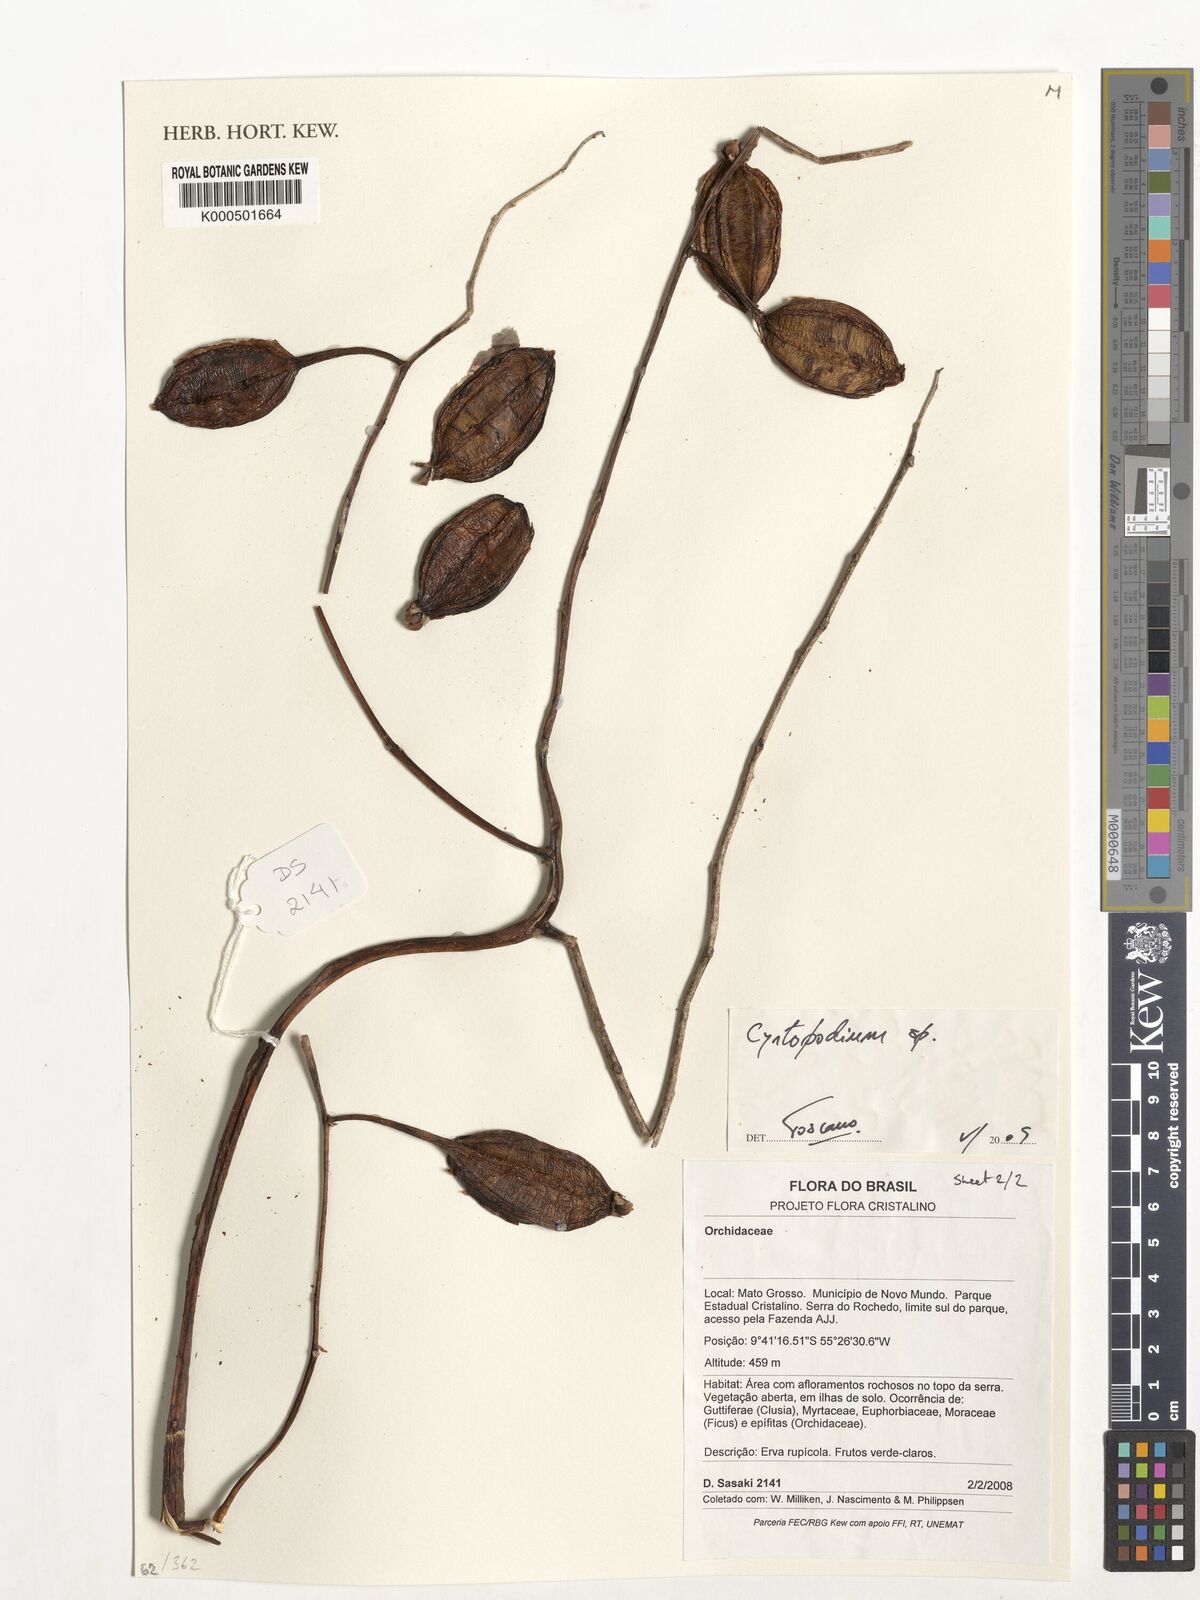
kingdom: Plantae
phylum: Tracheophyta
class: Liliopsida
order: Asparagales
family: Orchidaceae
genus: Cyrtopodium
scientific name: Cyrtopodium
